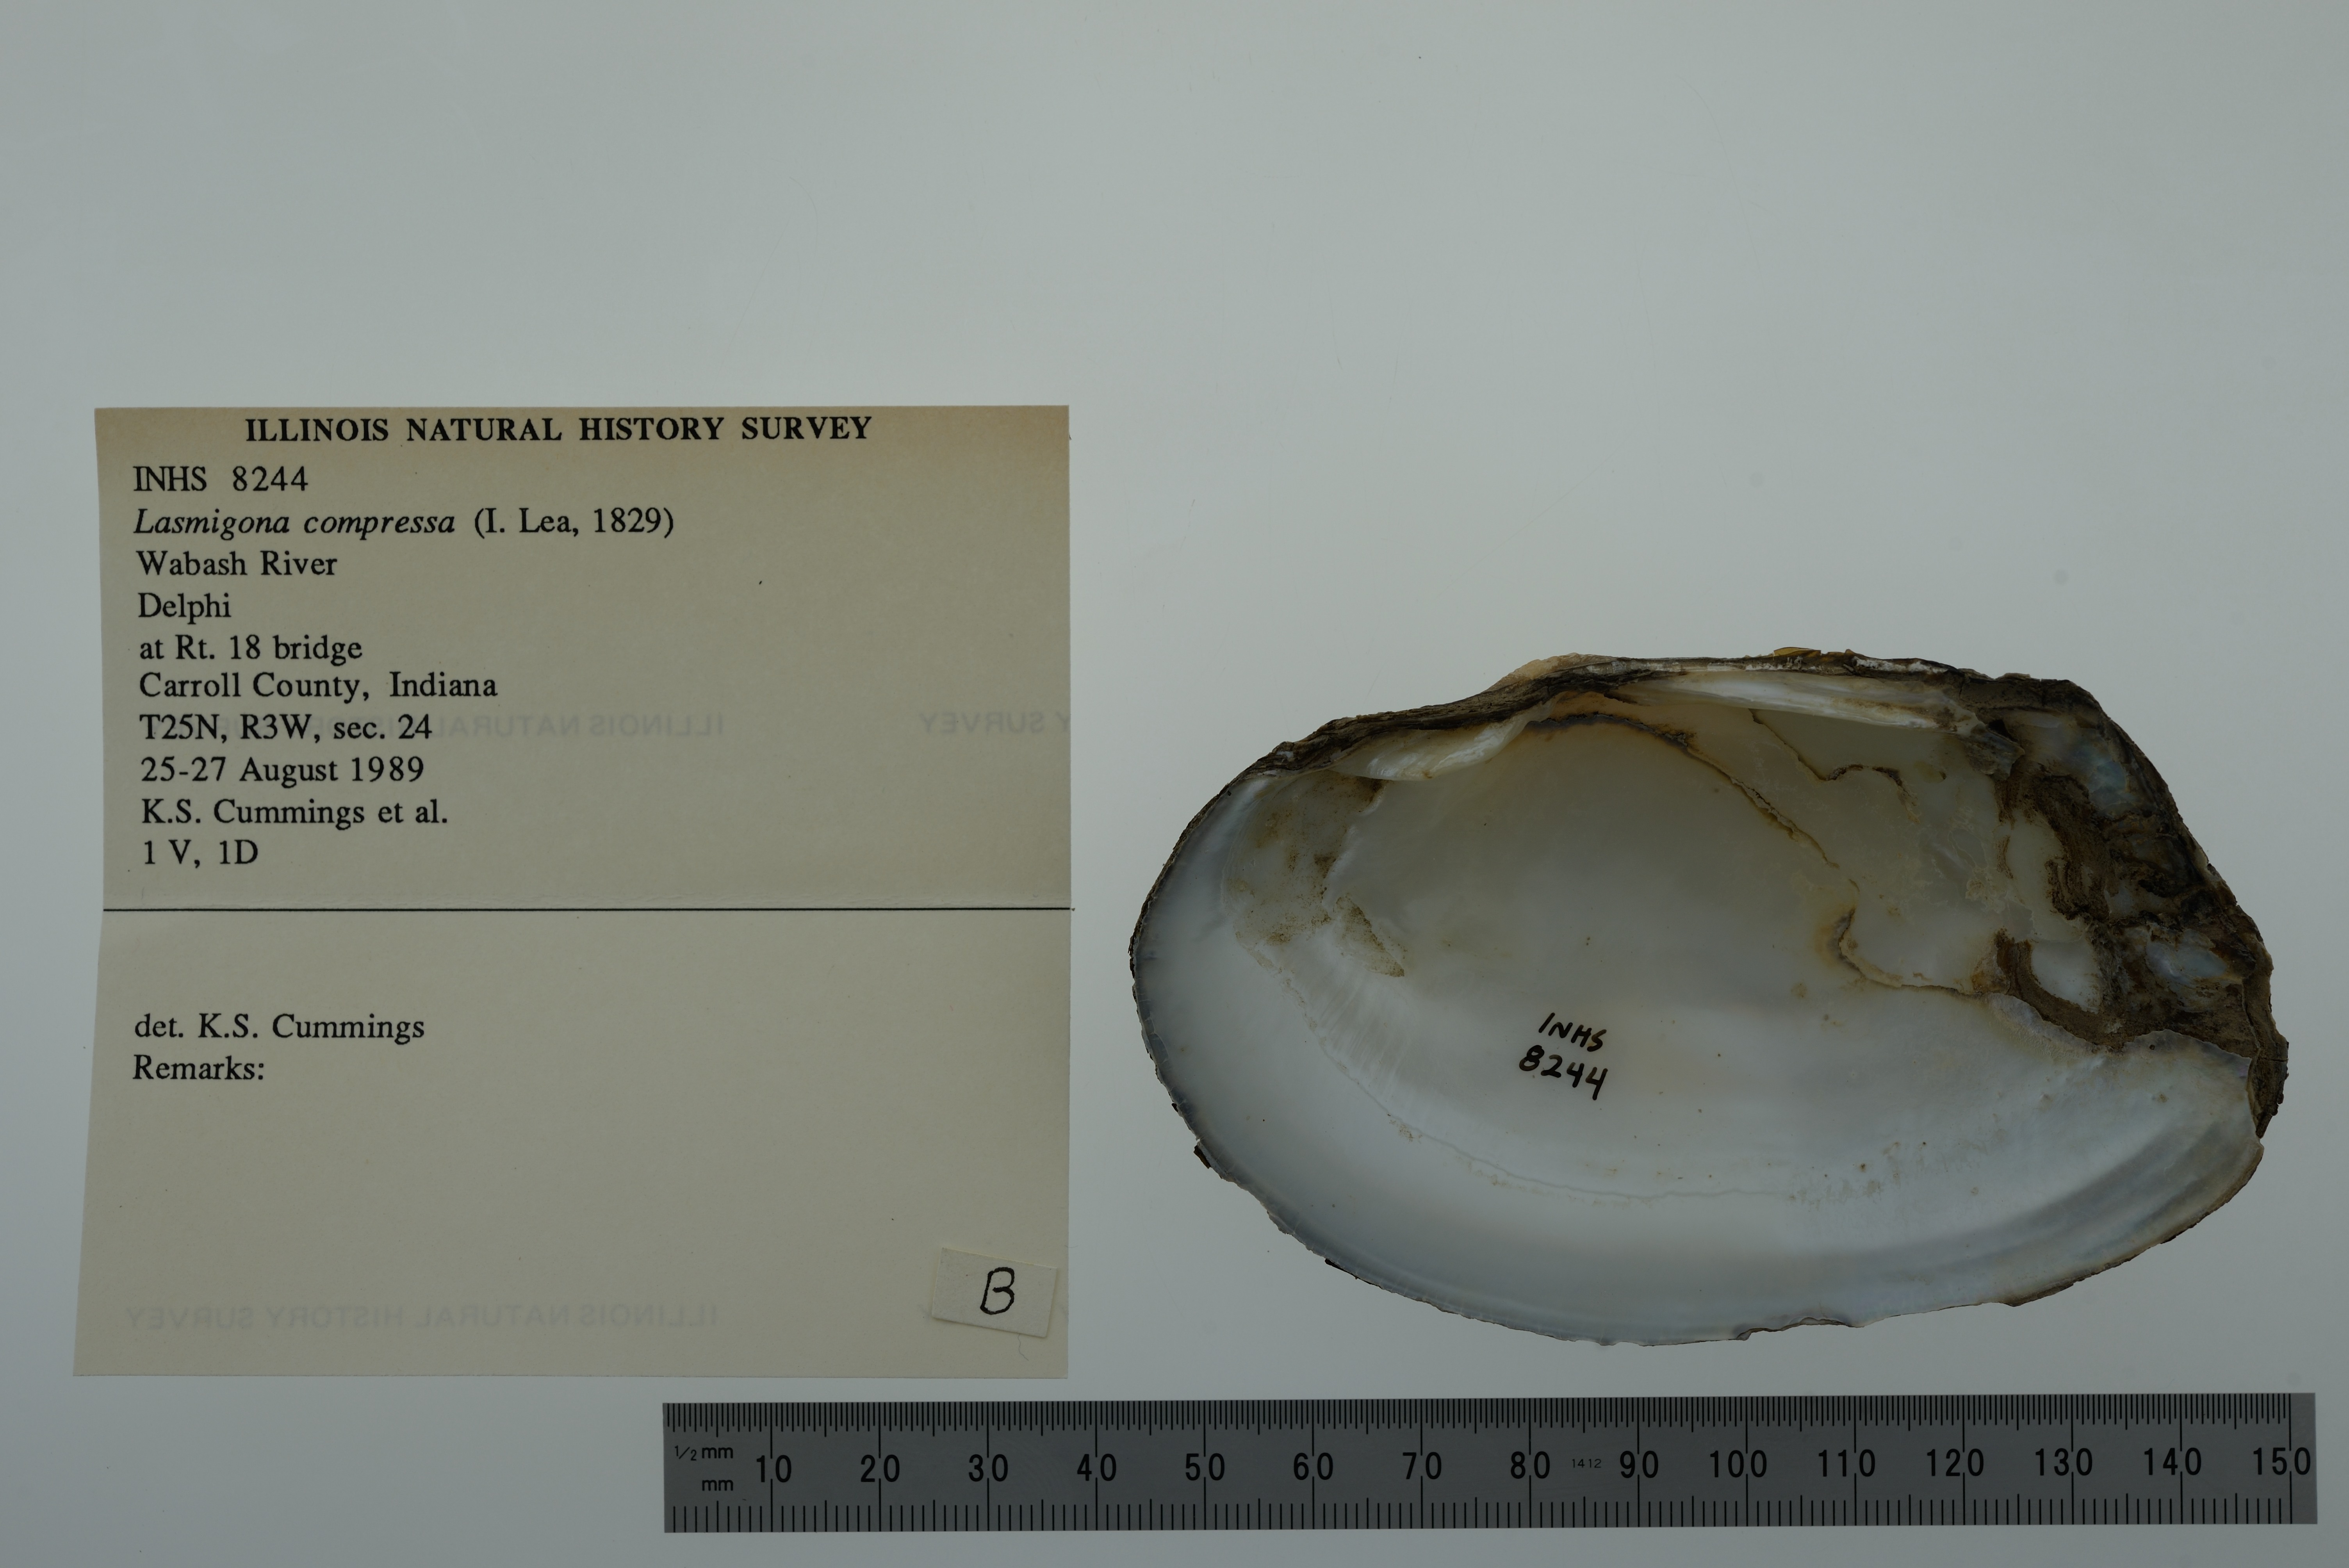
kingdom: Animalia
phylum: Mollusca
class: Bivalvia
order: Unionida
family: Unionidae
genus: Lasmigona
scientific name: Lasmigona compressa
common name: Creek heelsplitter
